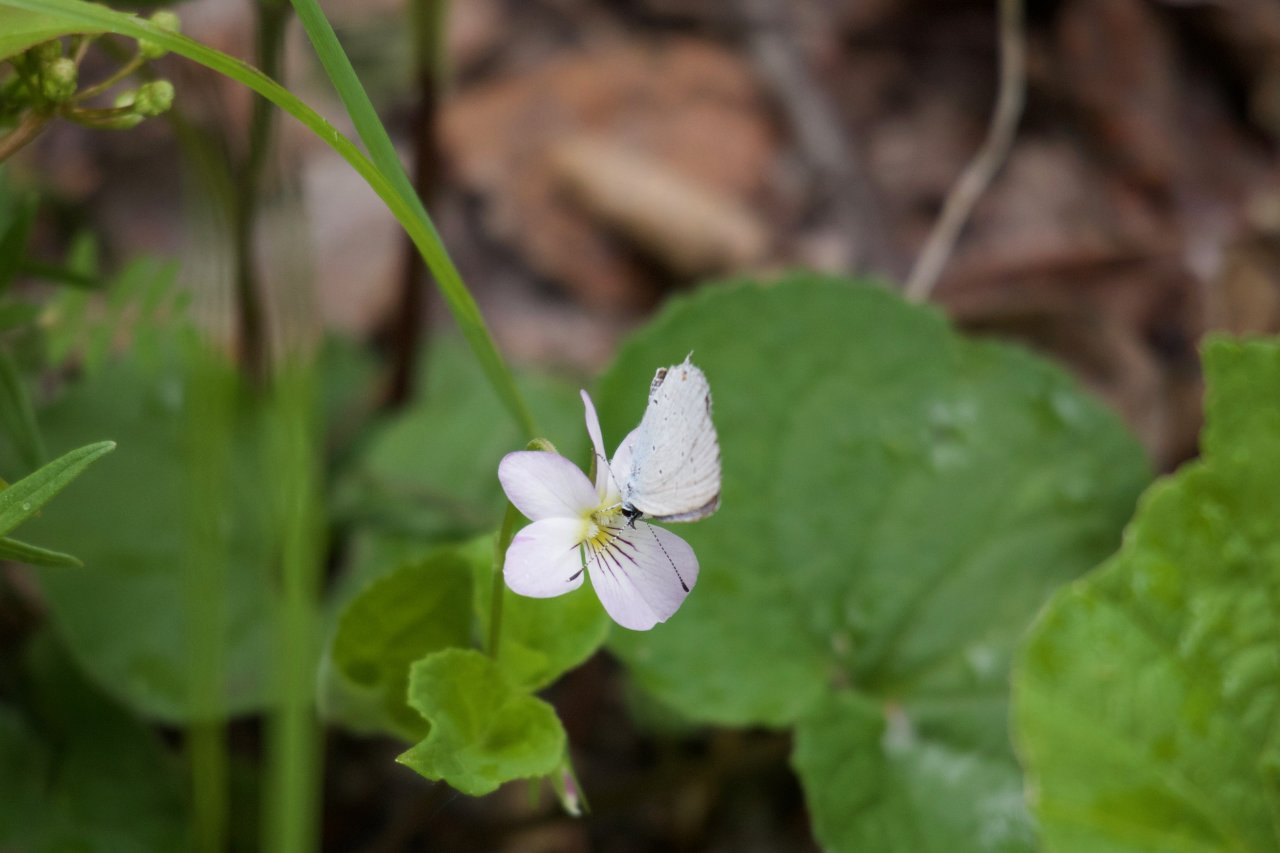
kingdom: Animalia
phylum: Arthropoda
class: Insecta
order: Lepidoptera
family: Lycaenidae
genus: Elkalyce
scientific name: Elkalyce amyntula
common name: Western Tailed-Blue
